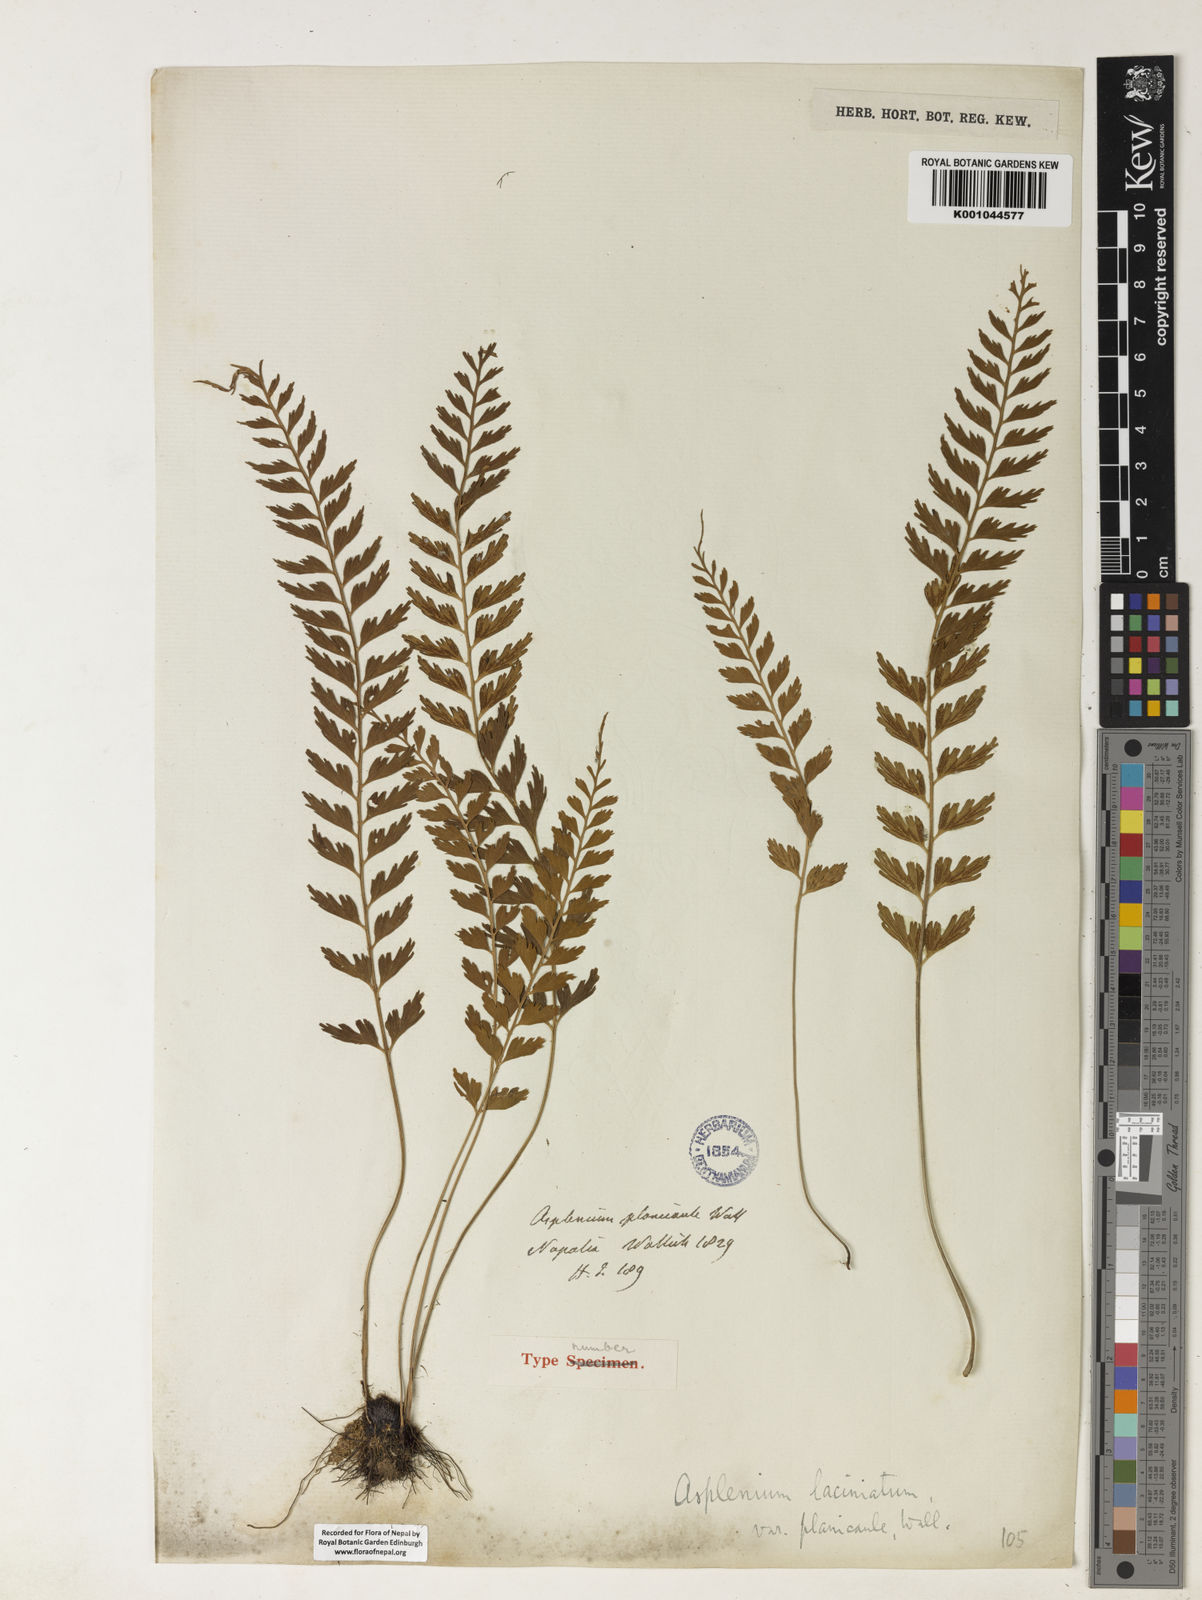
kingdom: Plantae
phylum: Tracheophyta
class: Polypodiopsida
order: Polypodiales
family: Aspleniaceae
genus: Asplenium
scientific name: Asplenium yoshinagae
